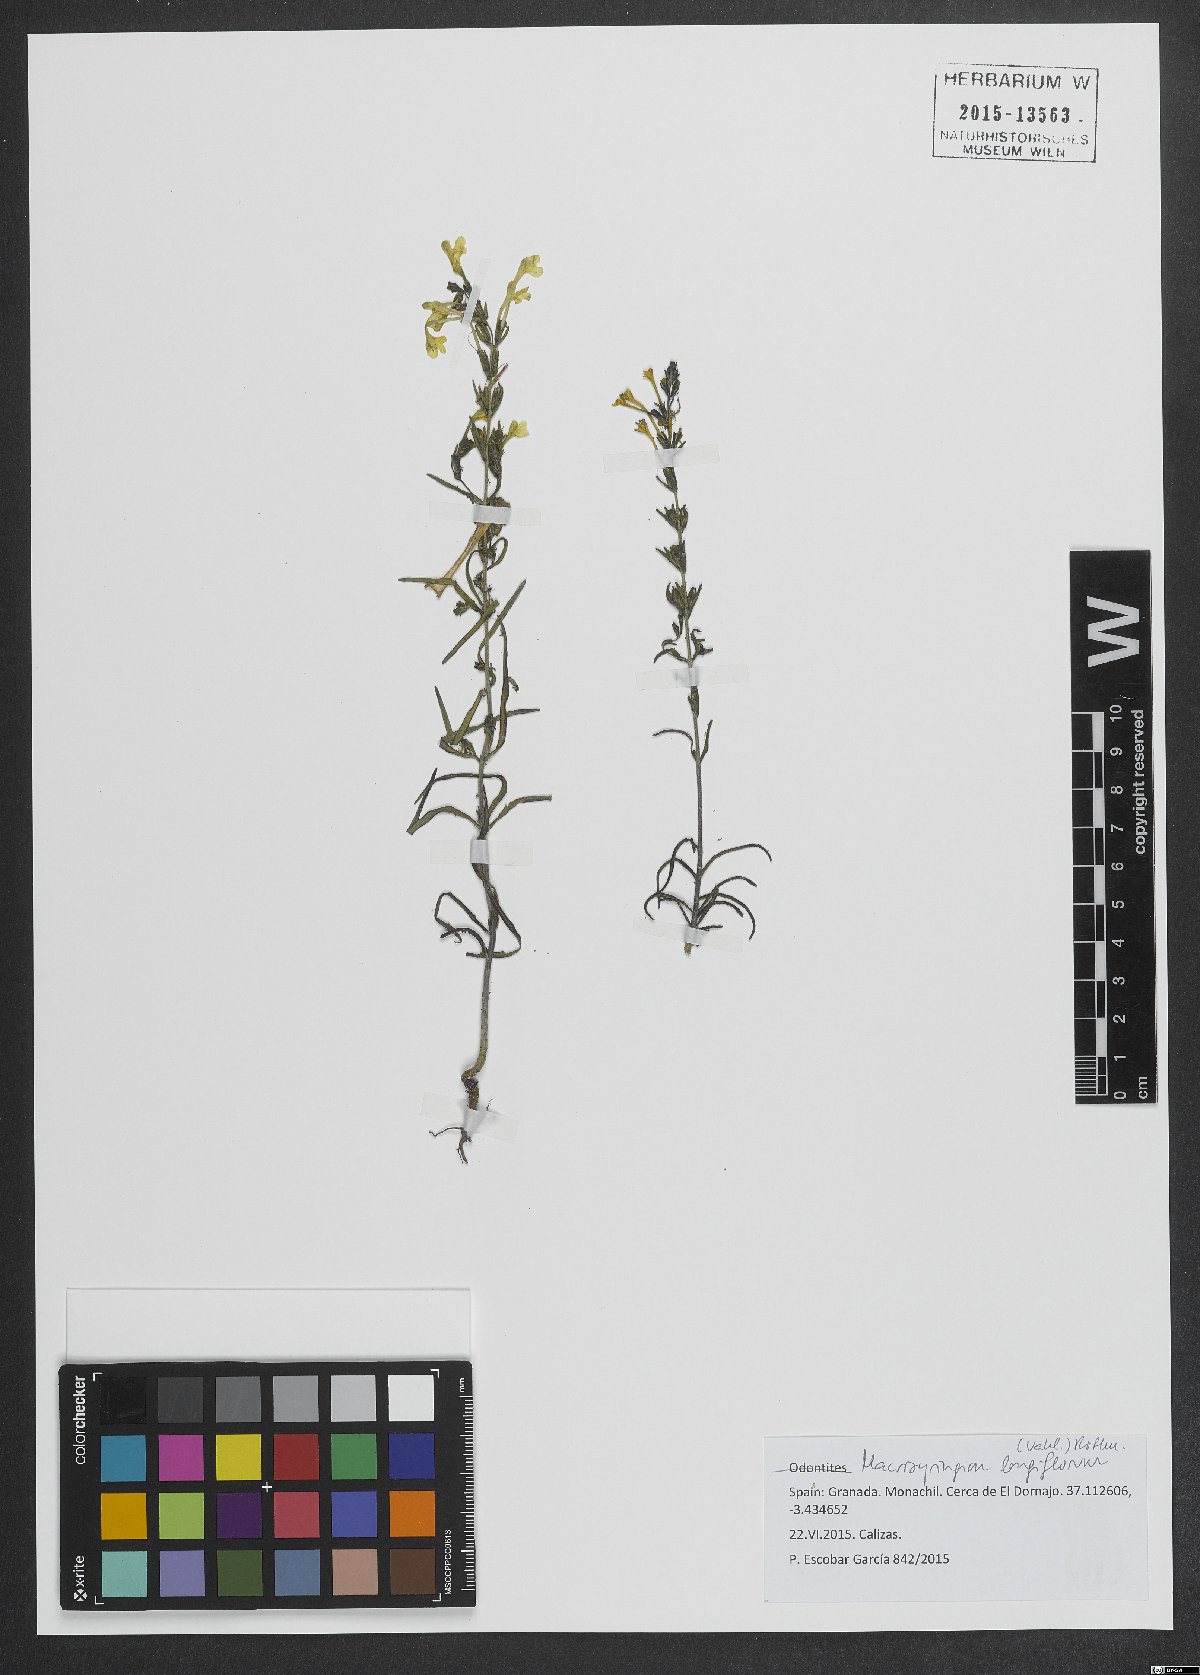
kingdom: Plantae
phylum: Tracheophyta
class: Magnoliopsida
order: Lamiales
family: Orobanchaceae
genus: Odontites
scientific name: Odontites longiflorus
